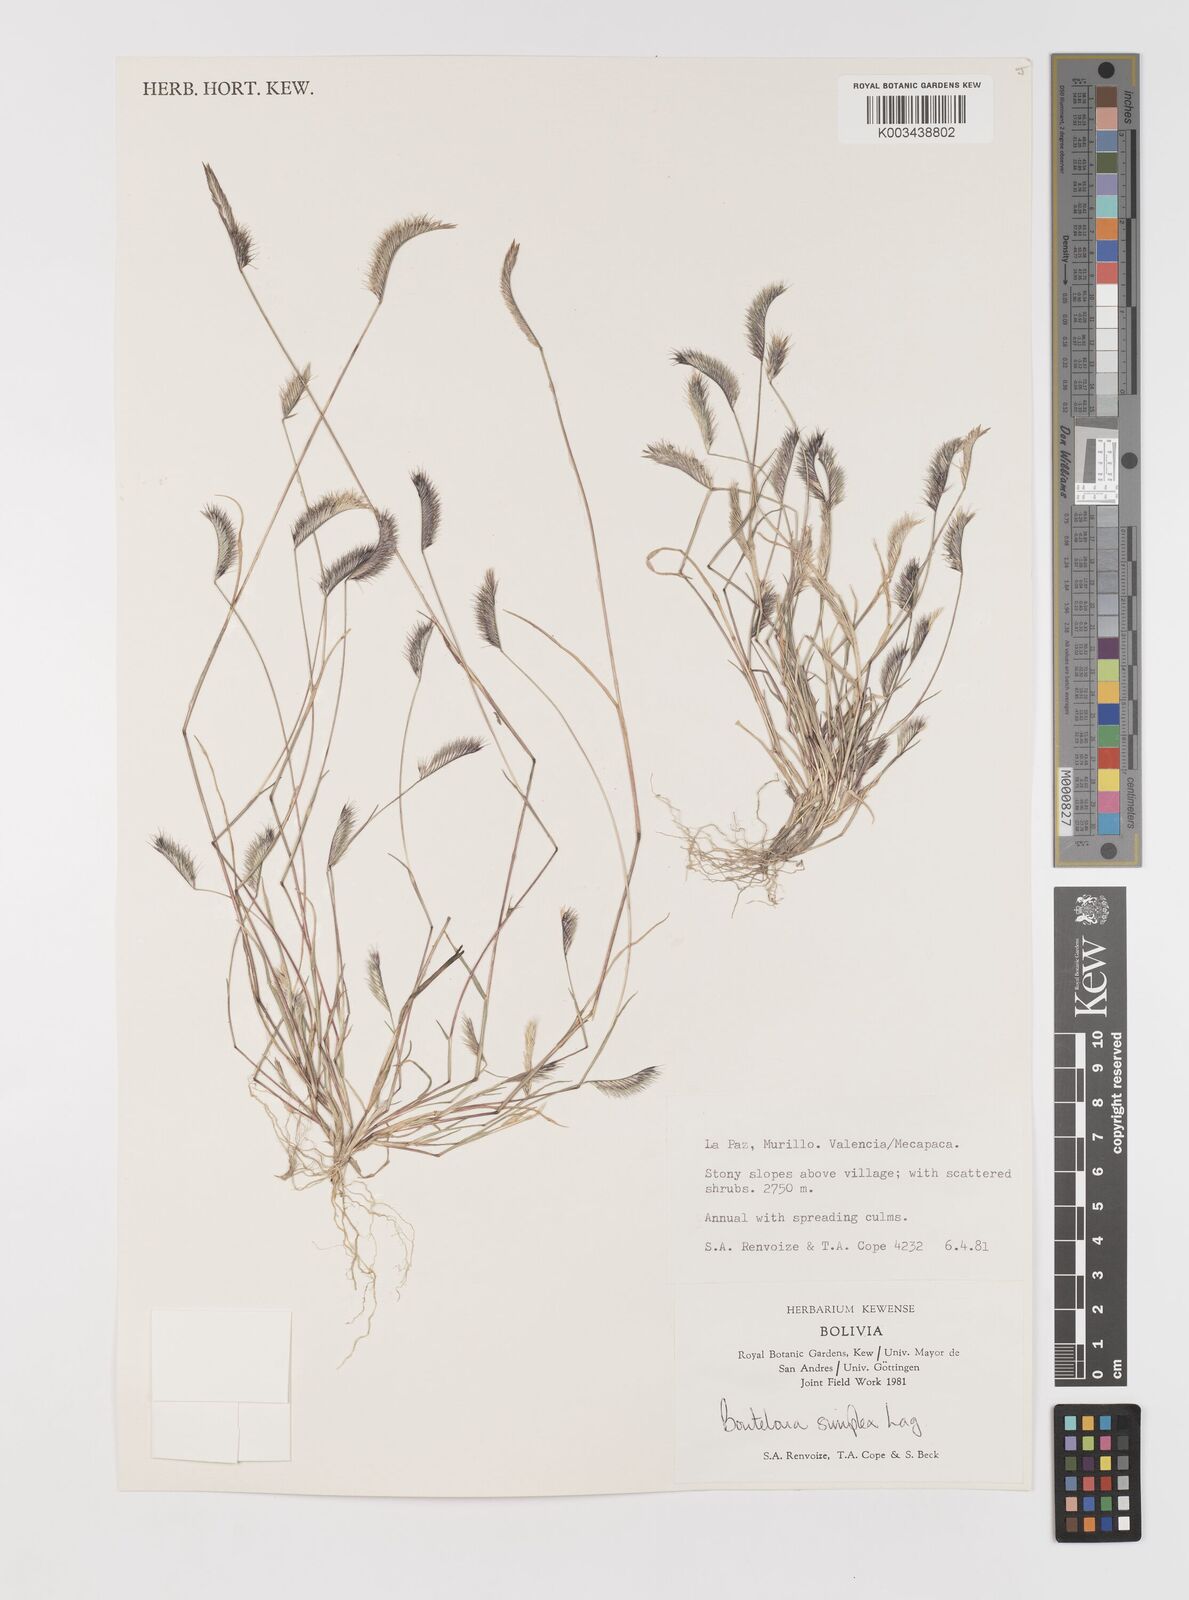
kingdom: Plantae
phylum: Tracheophyta
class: Liliopsida
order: Poales
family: Poaceae
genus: Bouteloua
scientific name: Bouteloua simplex
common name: Mat grama
